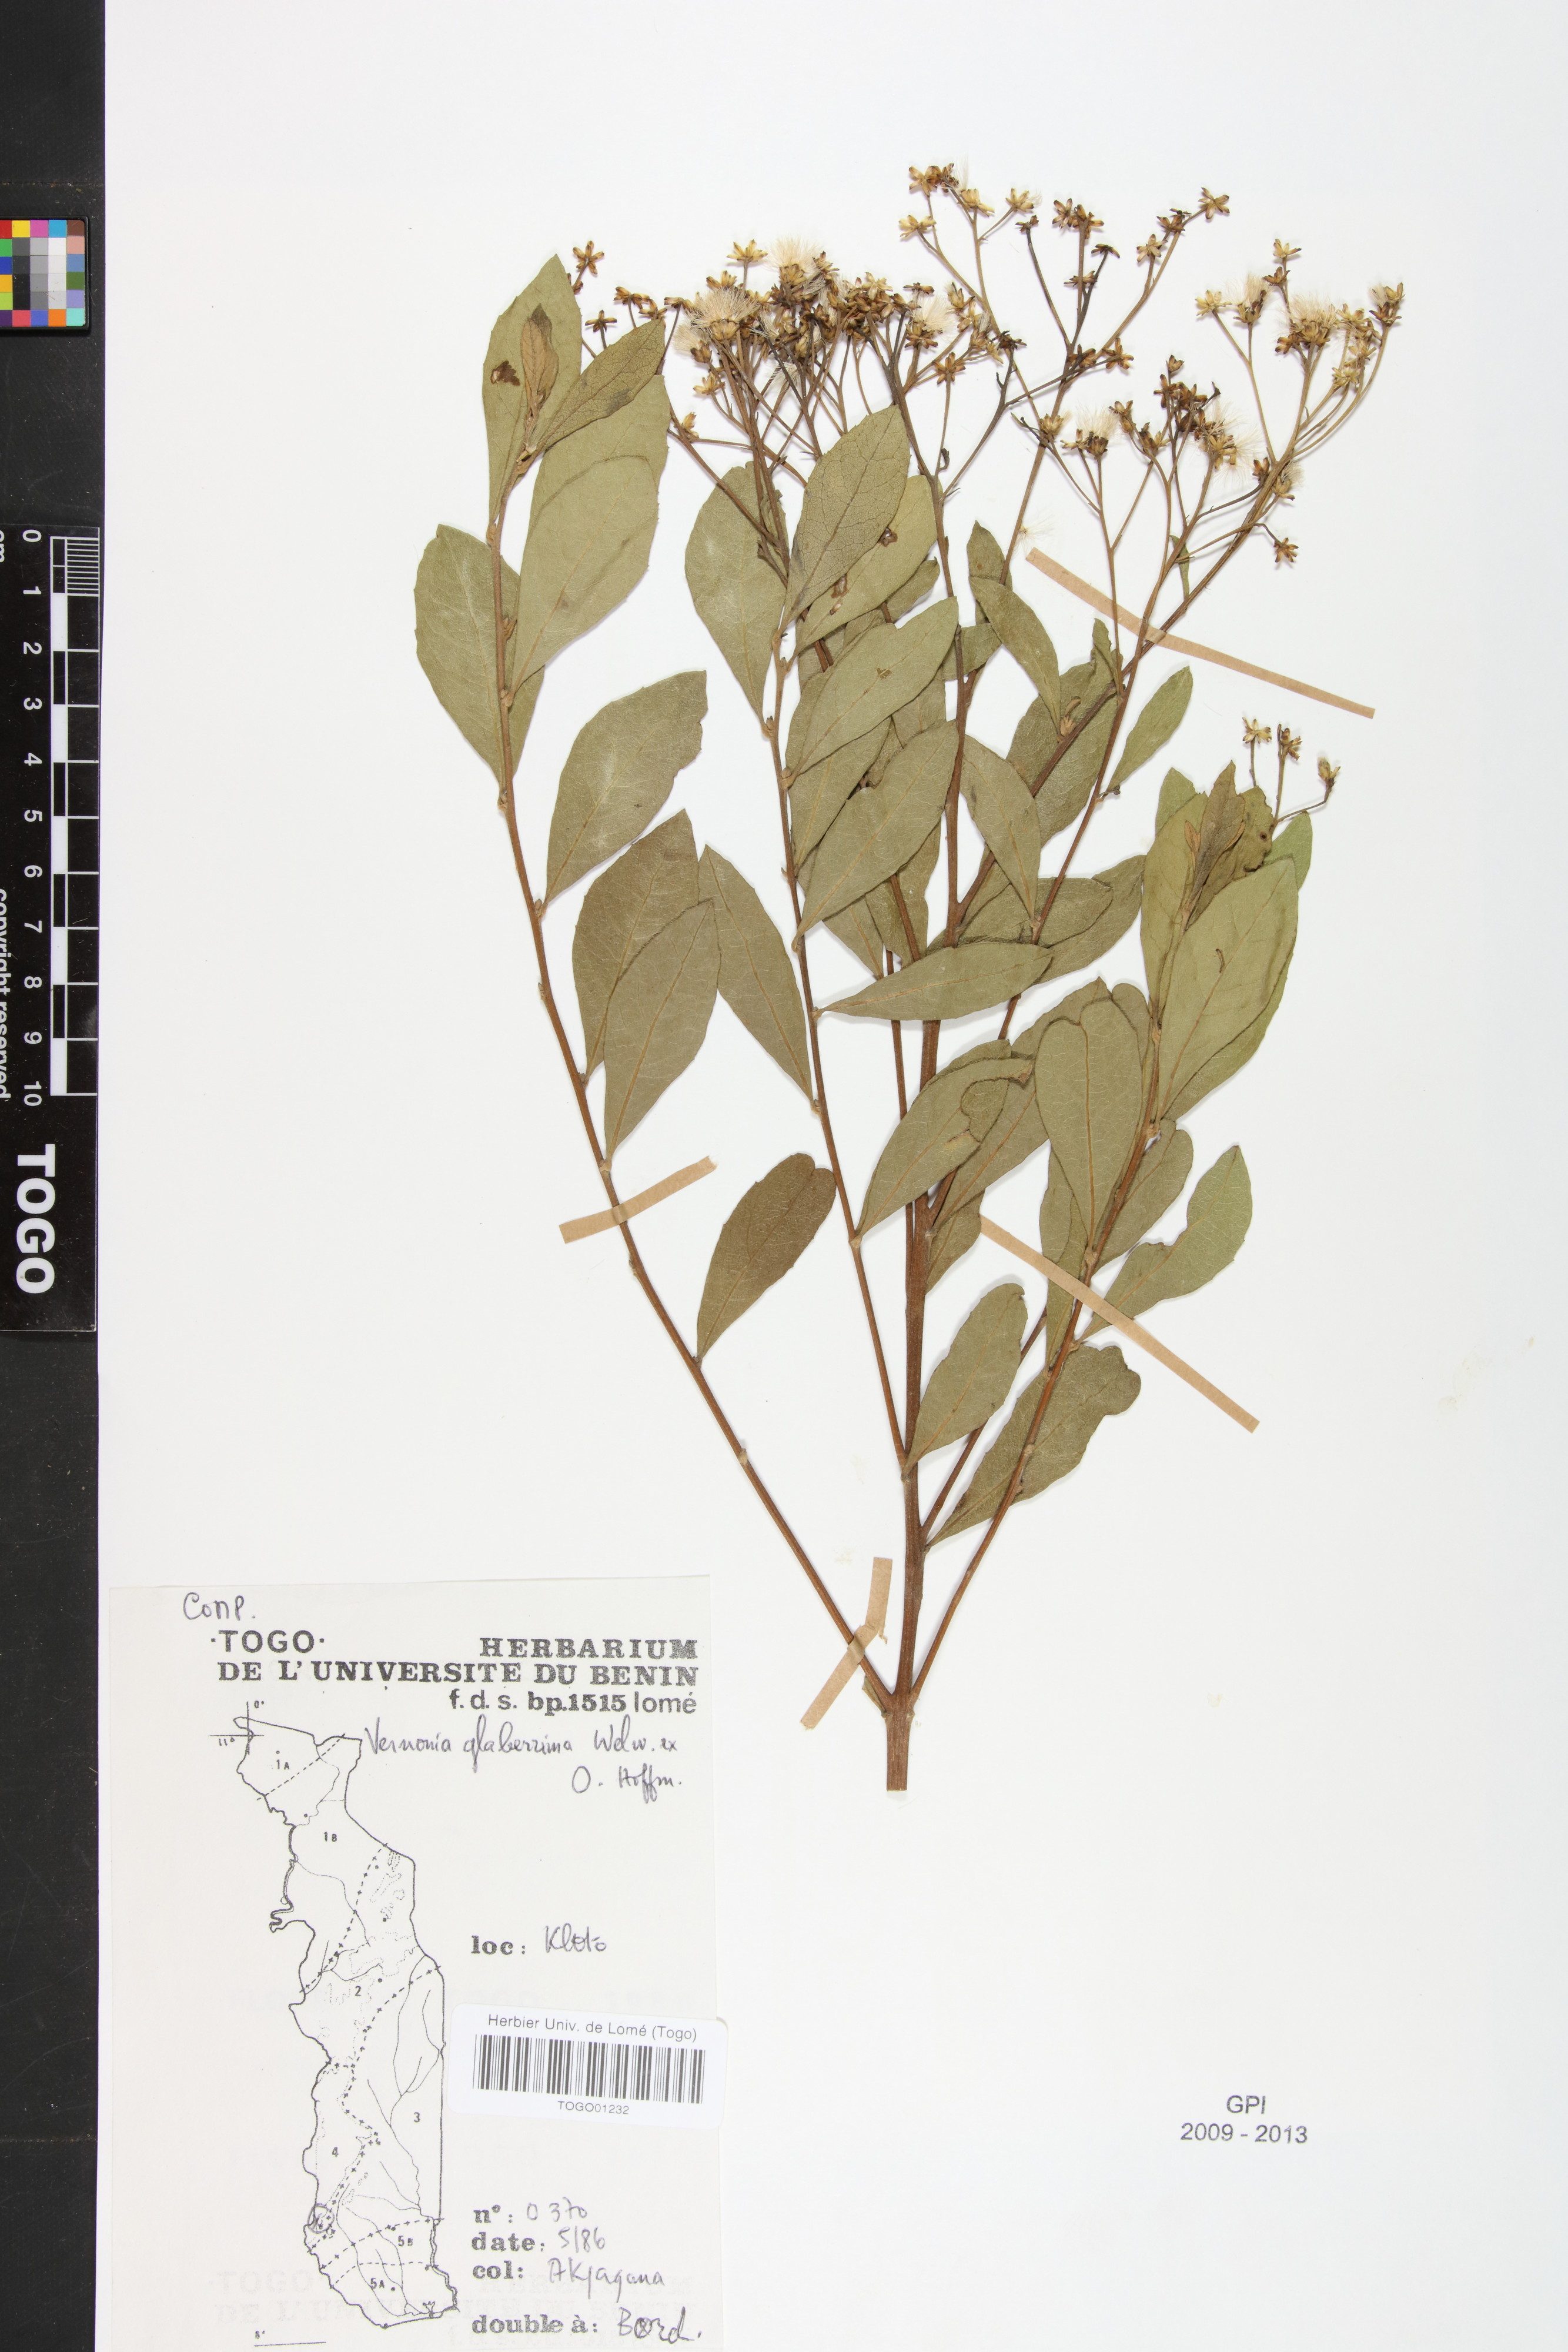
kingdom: Plantae
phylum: Tracheophyta
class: Magnoliopsida
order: Asterales
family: Asteraceae
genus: Gymnanthemum
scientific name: Gymnanthemum glaberrimum
